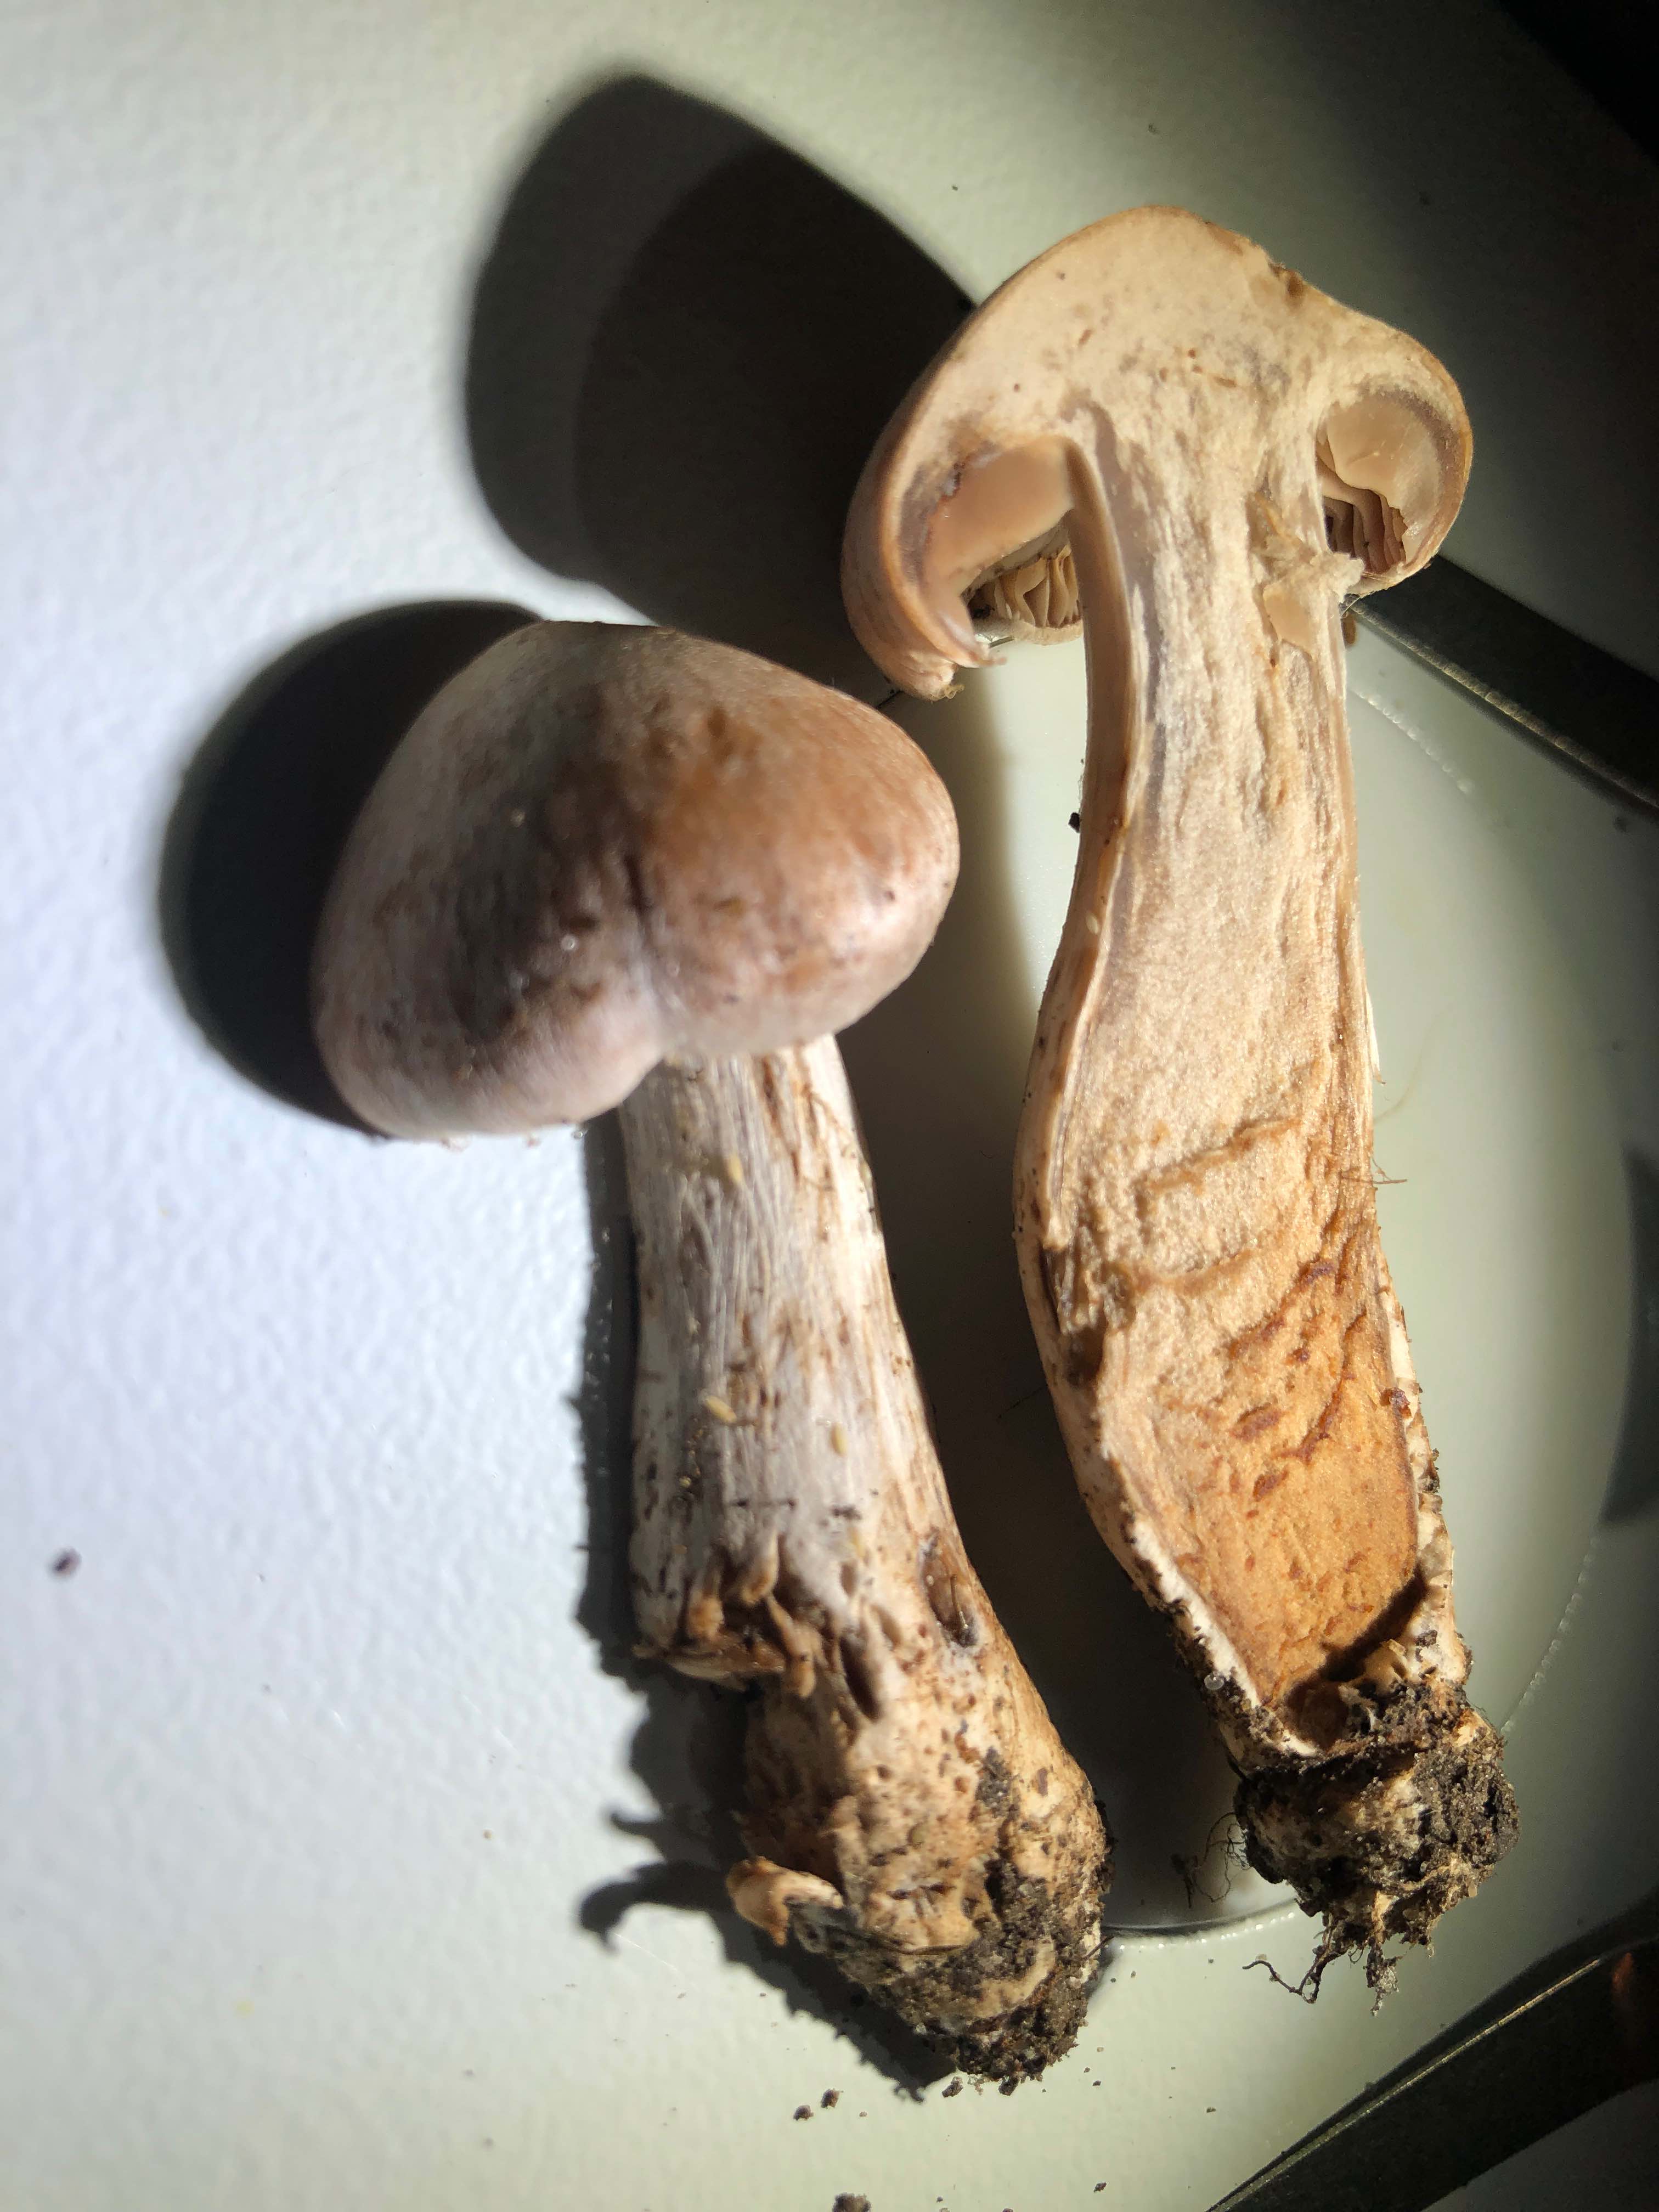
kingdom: Fungi
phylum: Basidiomycota
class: Agaricomycetes
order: Agaricales
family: Cortinariaceae
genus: Cortinarius
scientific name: Cortinarius
